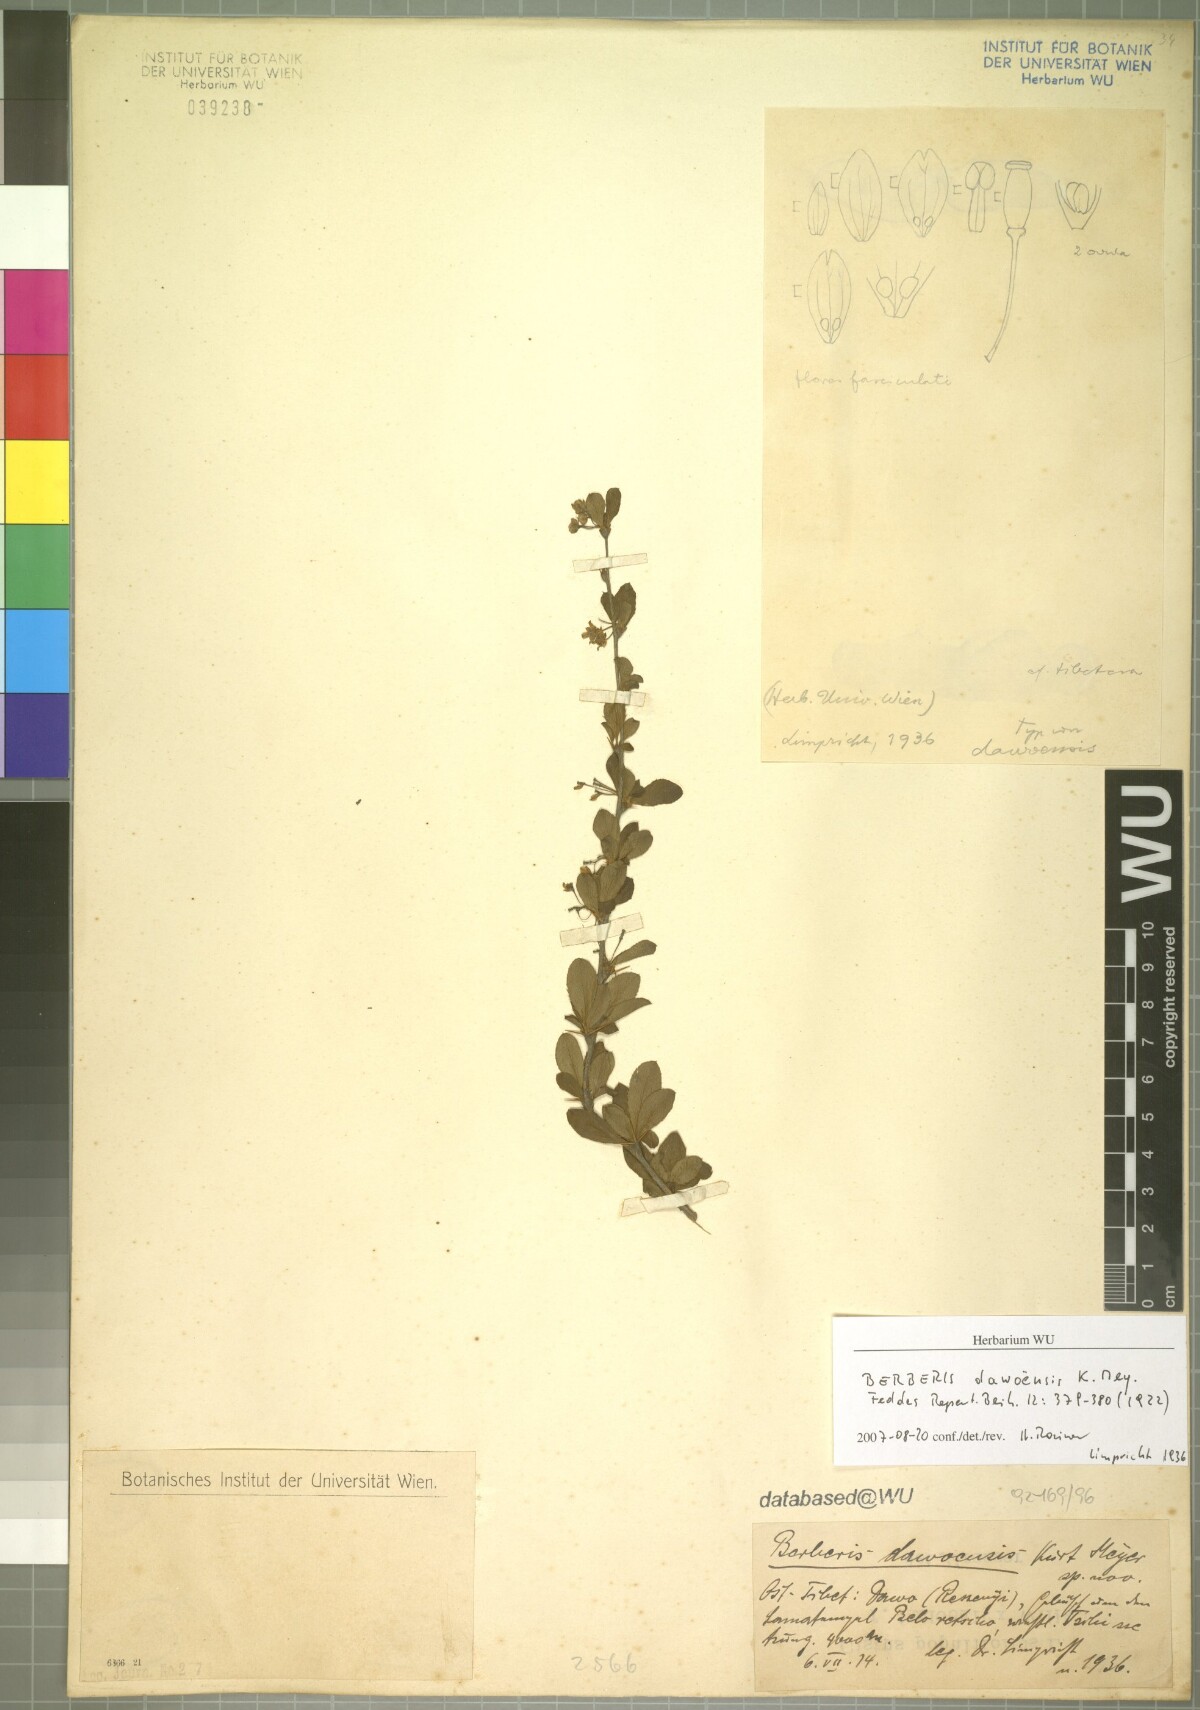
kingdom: Plantae
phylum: Tracheophyta
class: Magnoliopsida
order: Ranunculales
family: Berberidaceae
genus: Berberis
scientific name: Berberis dawoensis
